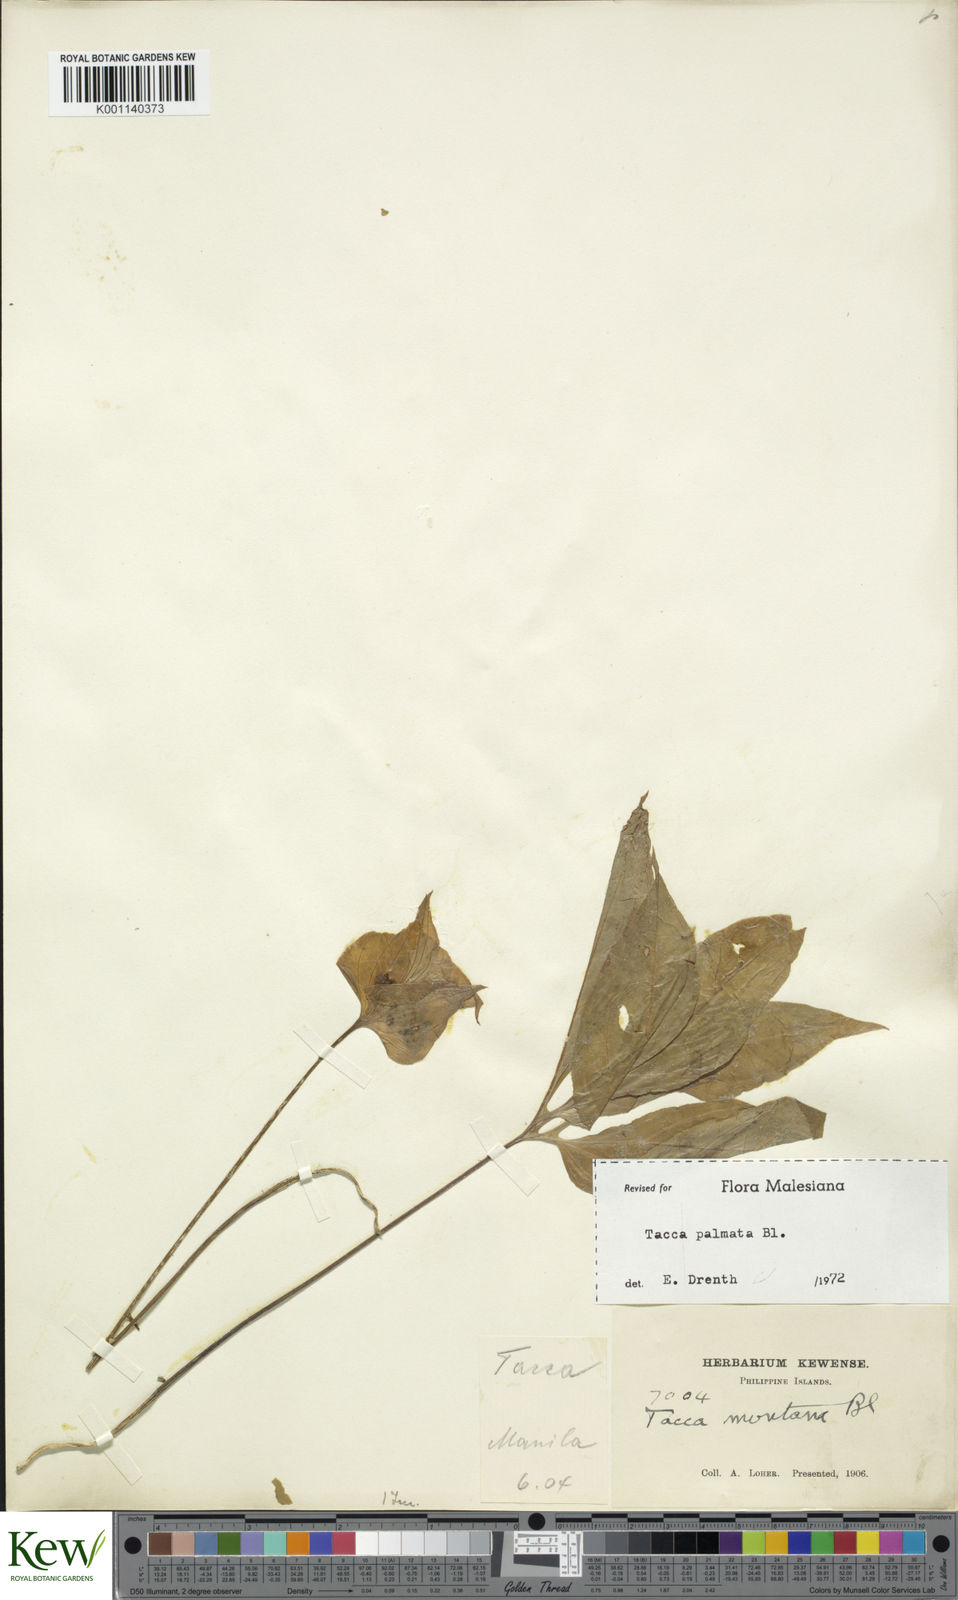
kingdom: Plantae
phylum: Tracheophyta
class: Liliopsida
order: Dioscoreales
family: Dioscoreaceae
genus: Tacca
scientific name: Tacca palmata
